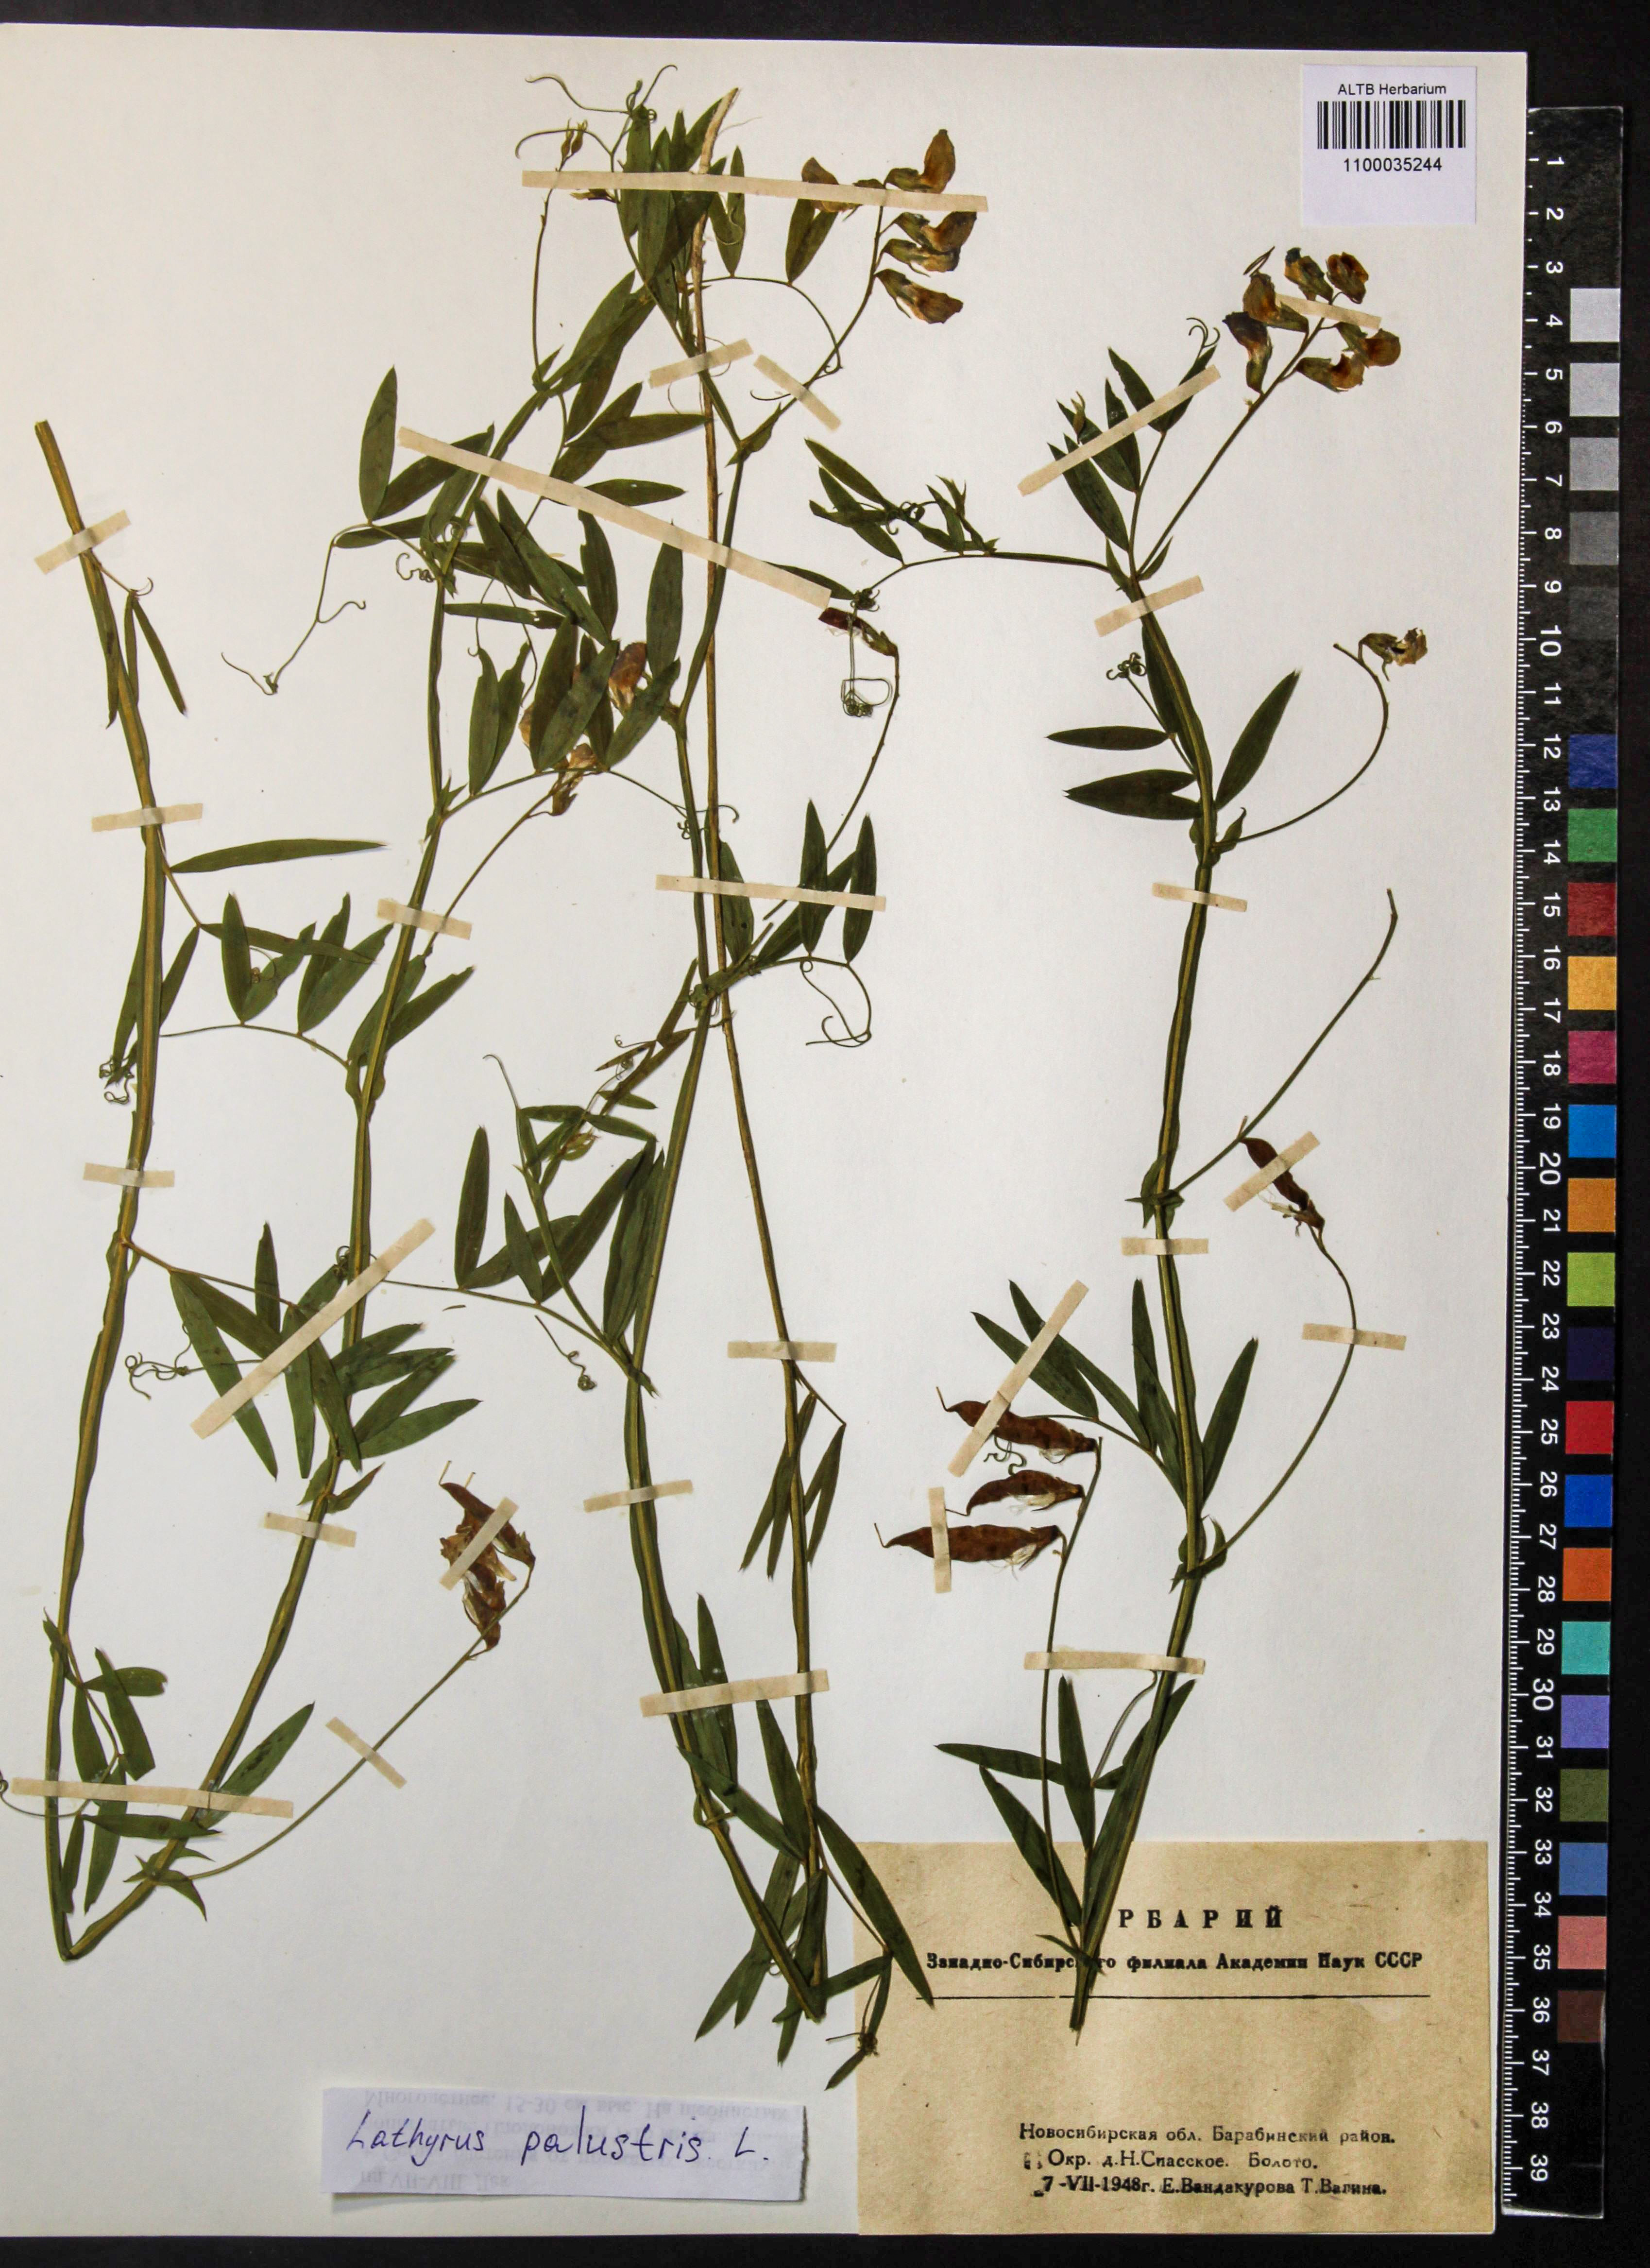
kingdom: Plantae
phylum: Tracheophyta
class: Magnoliopsida
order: Fabales
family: Fabaceae
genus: Lathyrus
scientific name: Lathyrus palustris
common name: Marsh pea
